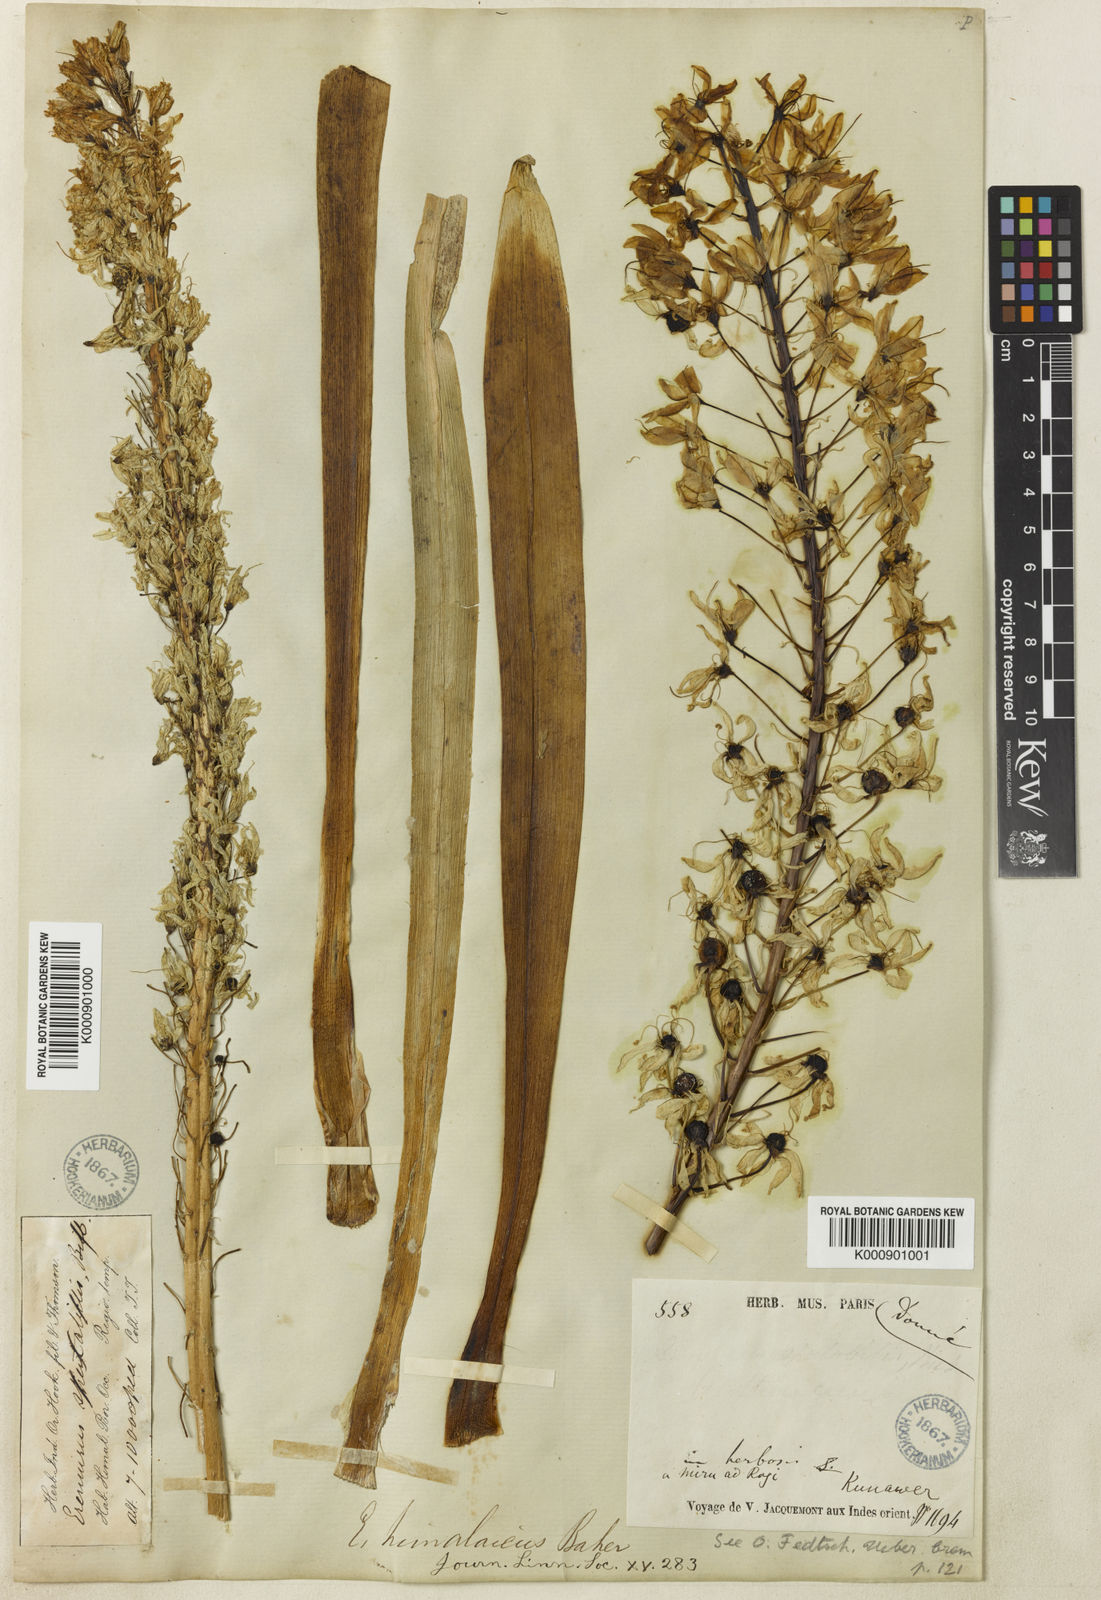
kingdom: Plantae
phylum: Tracheophyta
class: Liliopsida
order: Asparagales
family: Asphodelaceae
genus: Eremurus
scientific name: Eremurus himalaicus
